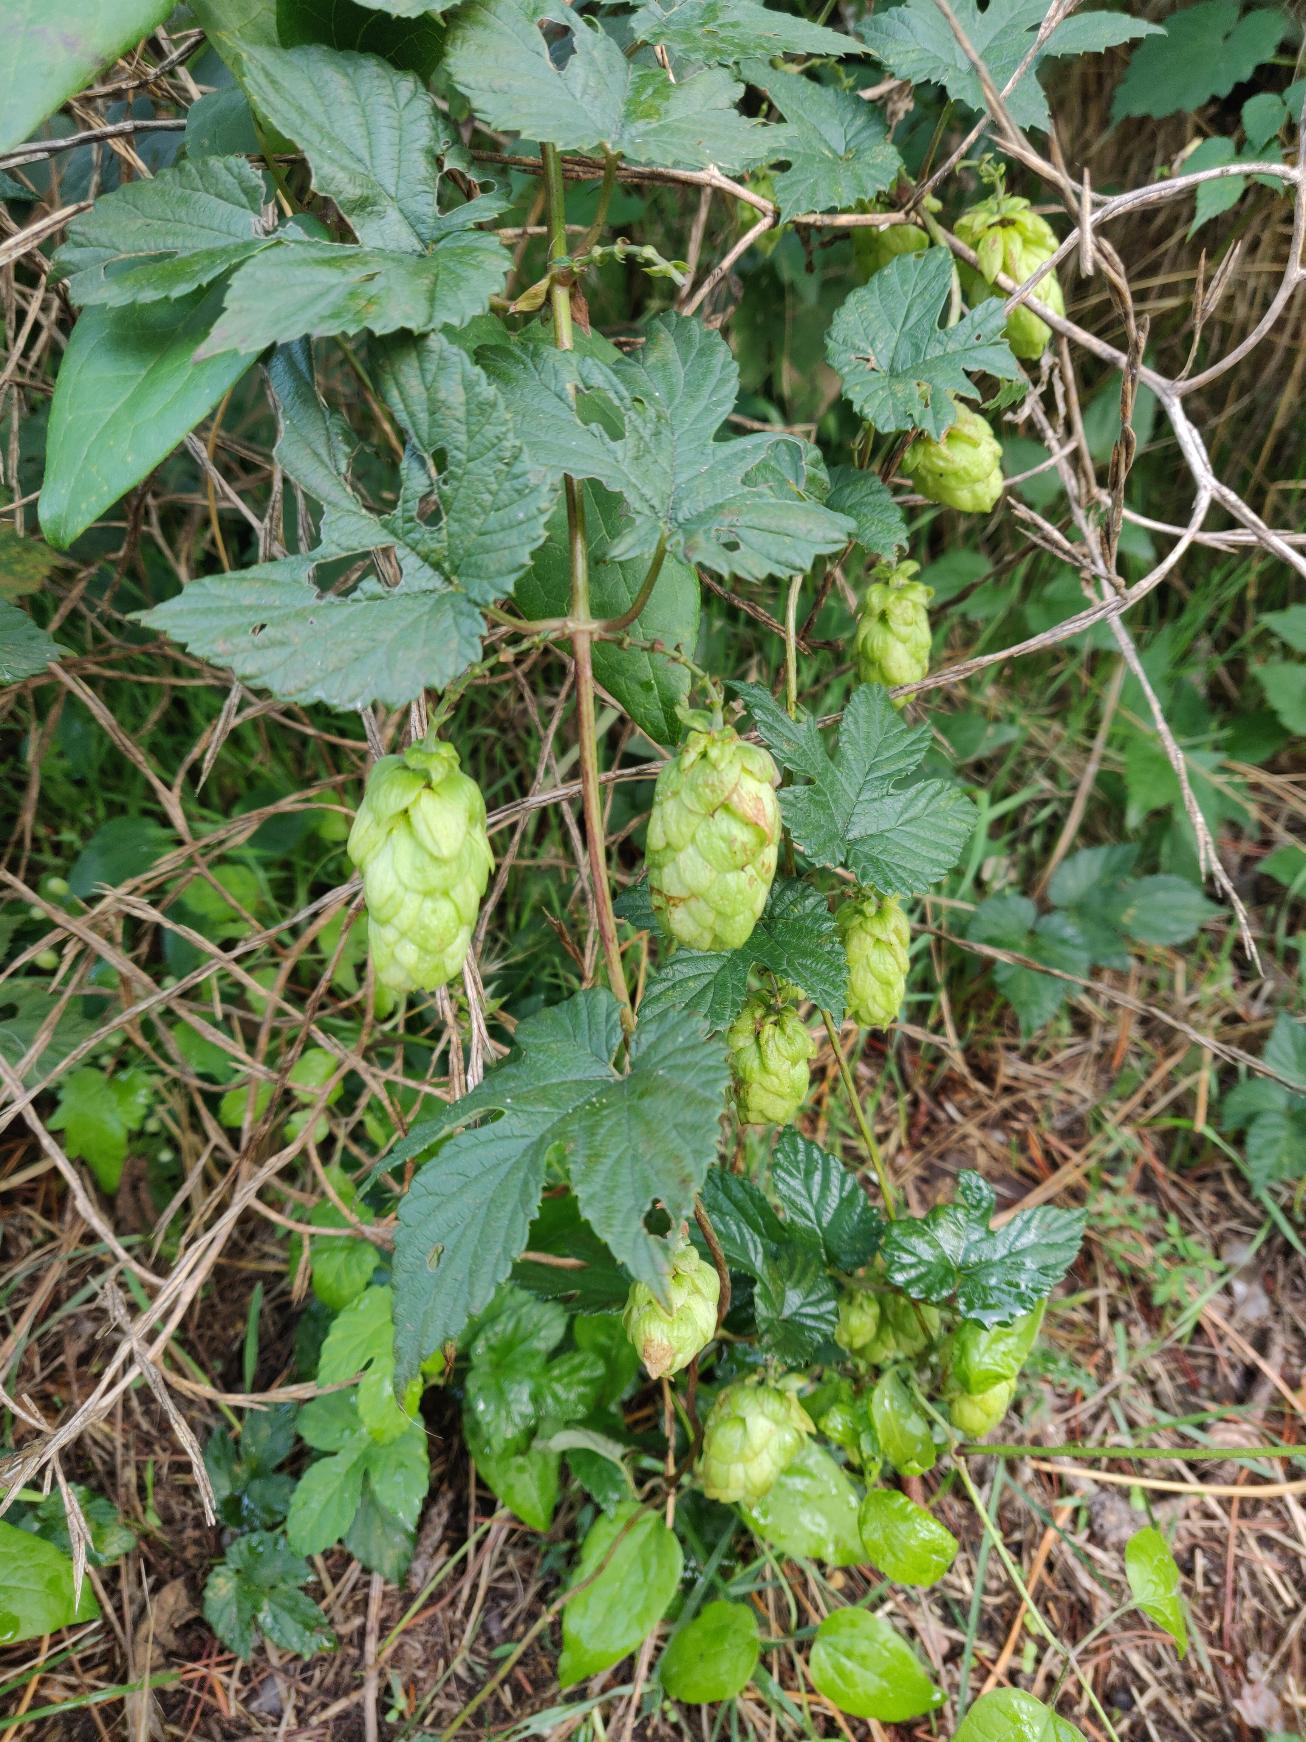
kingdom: Plantae
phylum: Tracheophyta
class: Magnoliopsida
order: Rosales
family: Cannabaceae
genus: Humulus
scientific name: Humulus lupulus
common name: Humle
